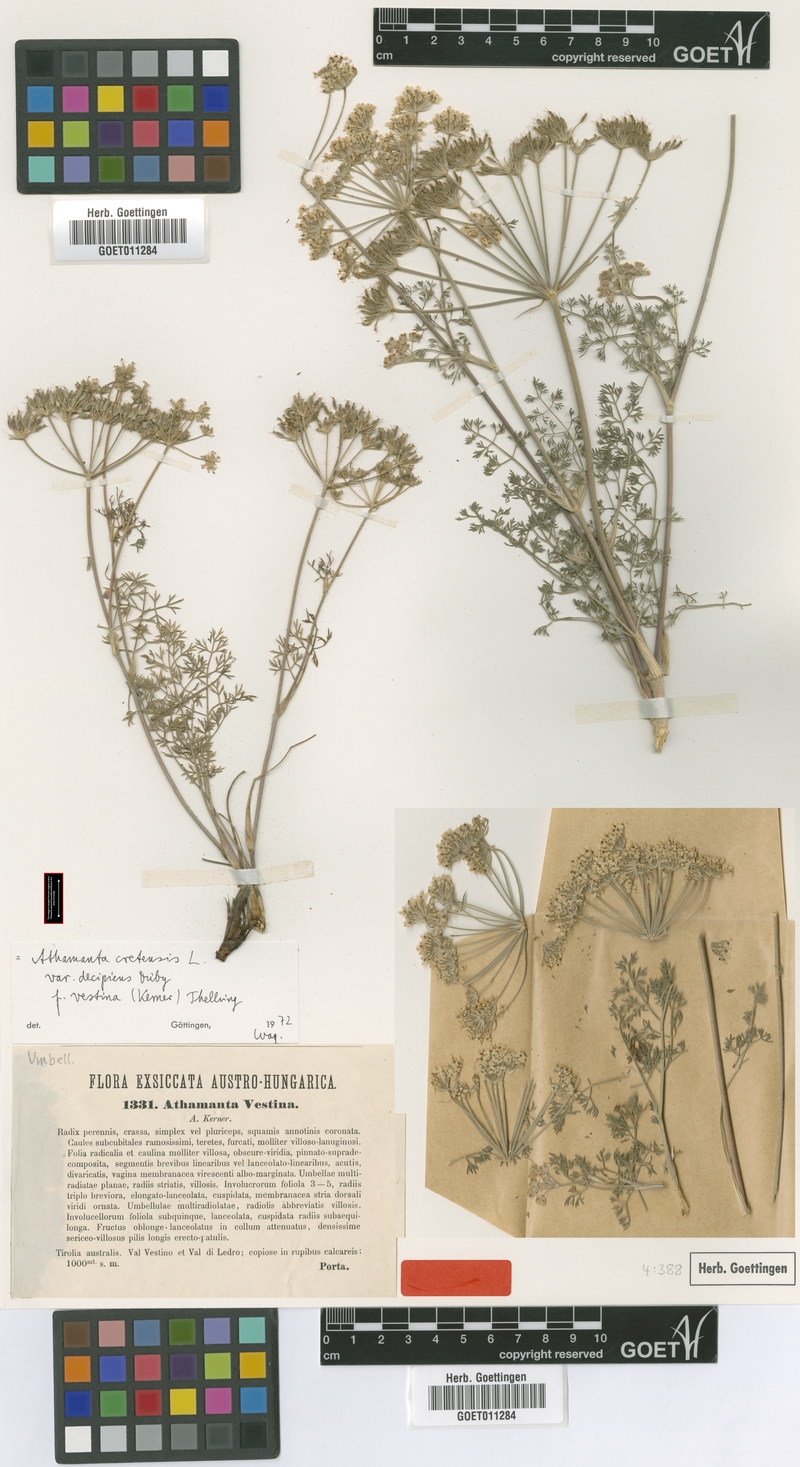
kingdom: Plantae
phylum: Tracheophyta
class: Magnoliopsida
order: Apiales
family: Apiaceae
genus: Athamanta
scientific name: Athamanta cretensis
